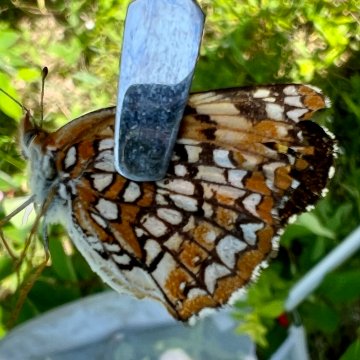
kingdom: Animalia
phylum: Arthropoda
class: Insecta
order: Lepidoptera
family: Nymphalidae
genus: Chlosyne
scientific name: Chlosyne harrisii
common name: Harris's Checkerspot
